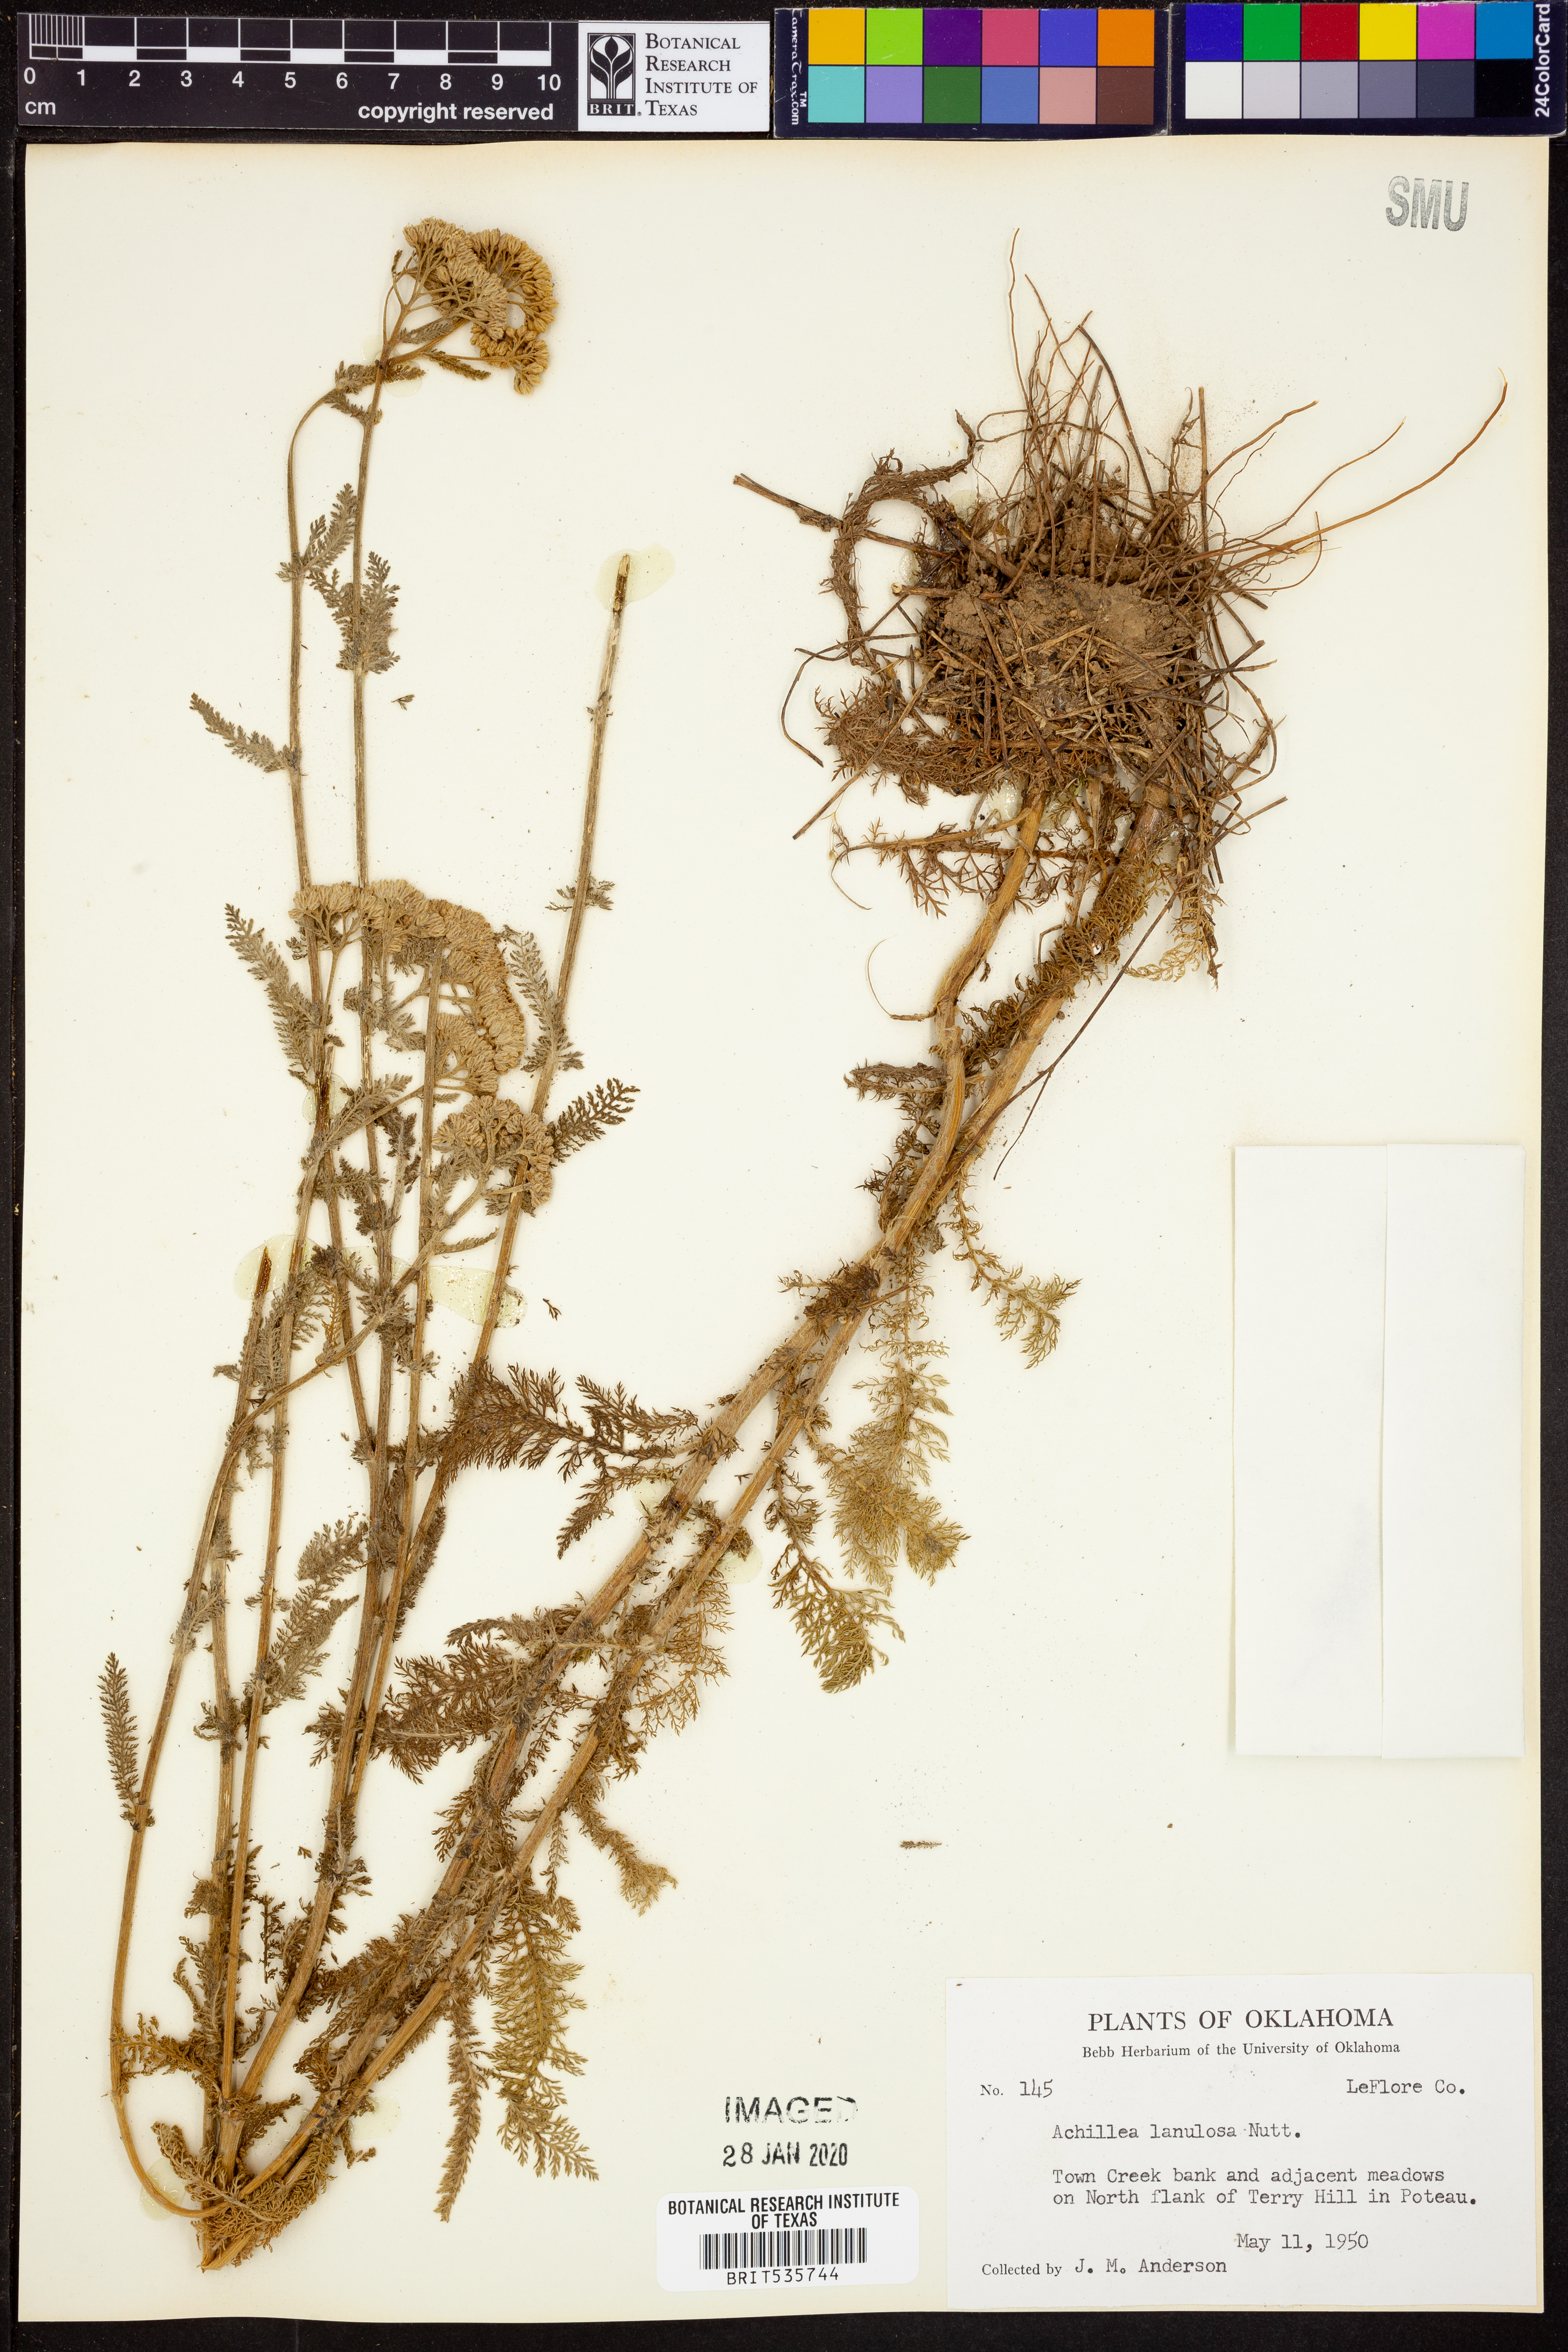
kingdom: Plantae
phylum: Tracheophyta
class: Magnoliopsida
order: Asterales
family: Asteraceae
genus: Achillea
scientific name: Achillea millefolium
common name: Yarrow
